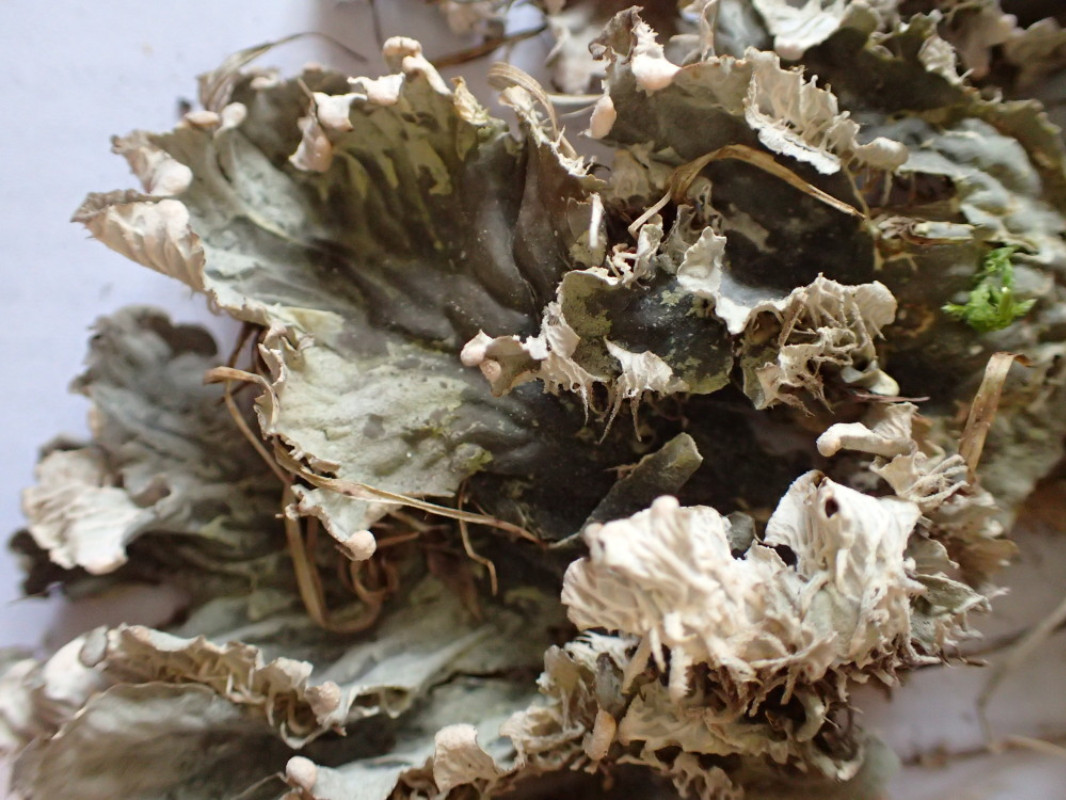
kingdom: Fungi
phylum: Ascomycota
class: Lecanoromycetes
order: Peltigerales
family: Peltigeraceae
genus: Peltigera
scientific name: Peltigera membranacea
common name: tynd skjoldlav
